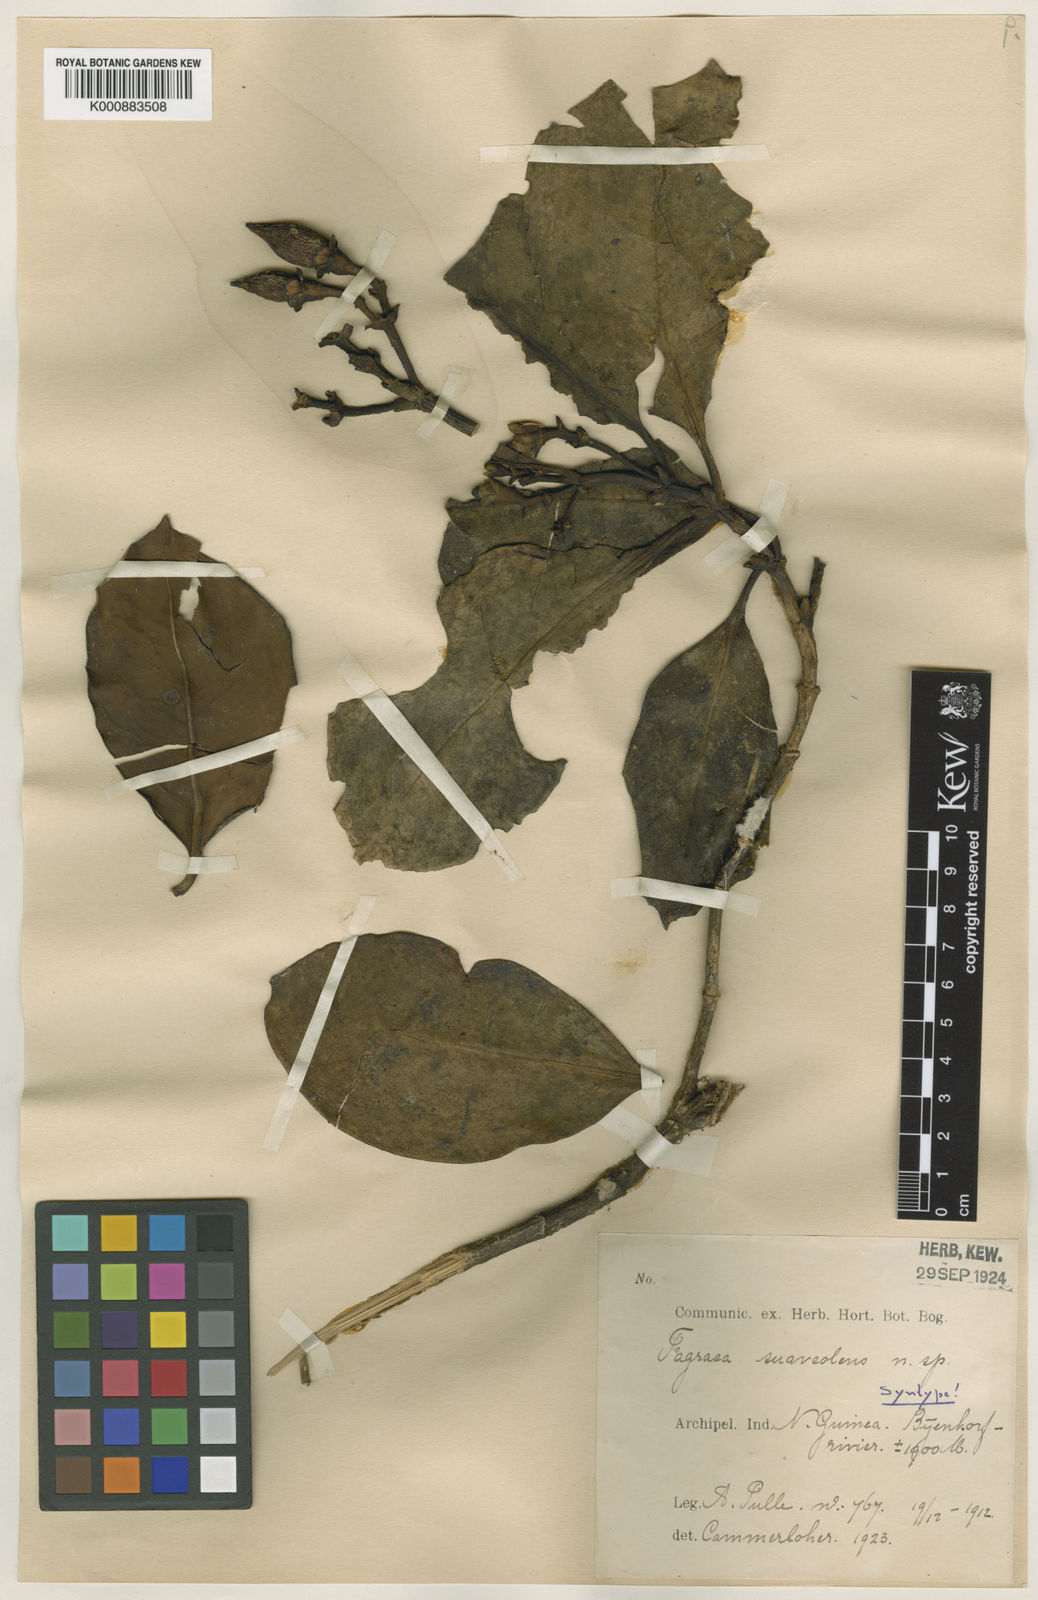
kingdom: Plantae
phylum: Tracheophyta
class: Magnoliopsida
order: Gentianales
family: Gentianaceae
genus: Fagraea
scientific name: Fagraea bodenii
